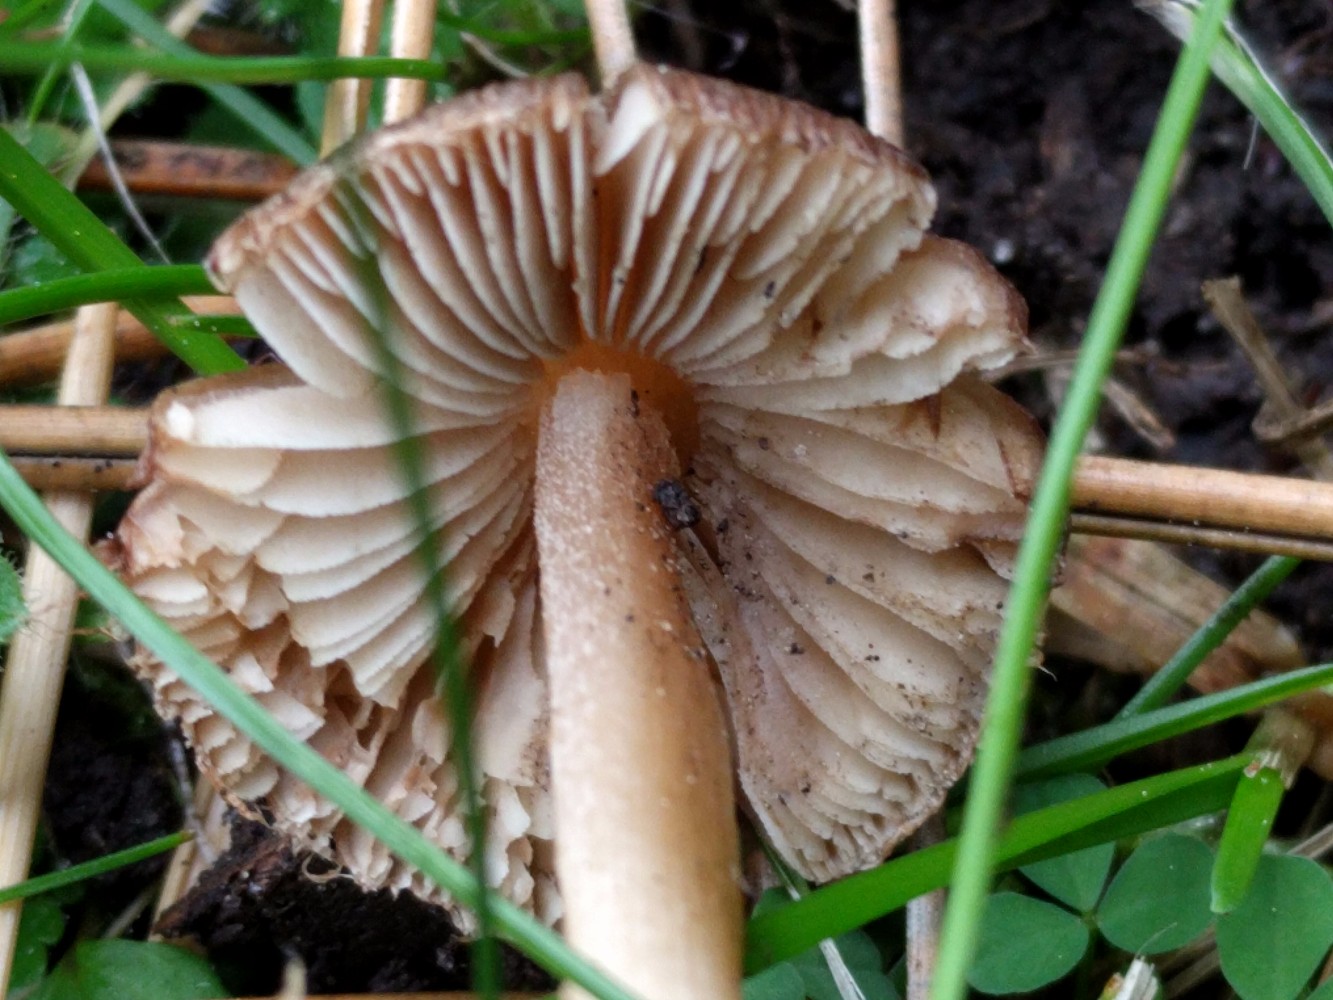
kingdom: Fungi
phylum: Basidiomycota
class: Agaricomycetes
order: Agaricales
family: Inocybaceae
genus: Inocybe
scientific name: Inocybe
